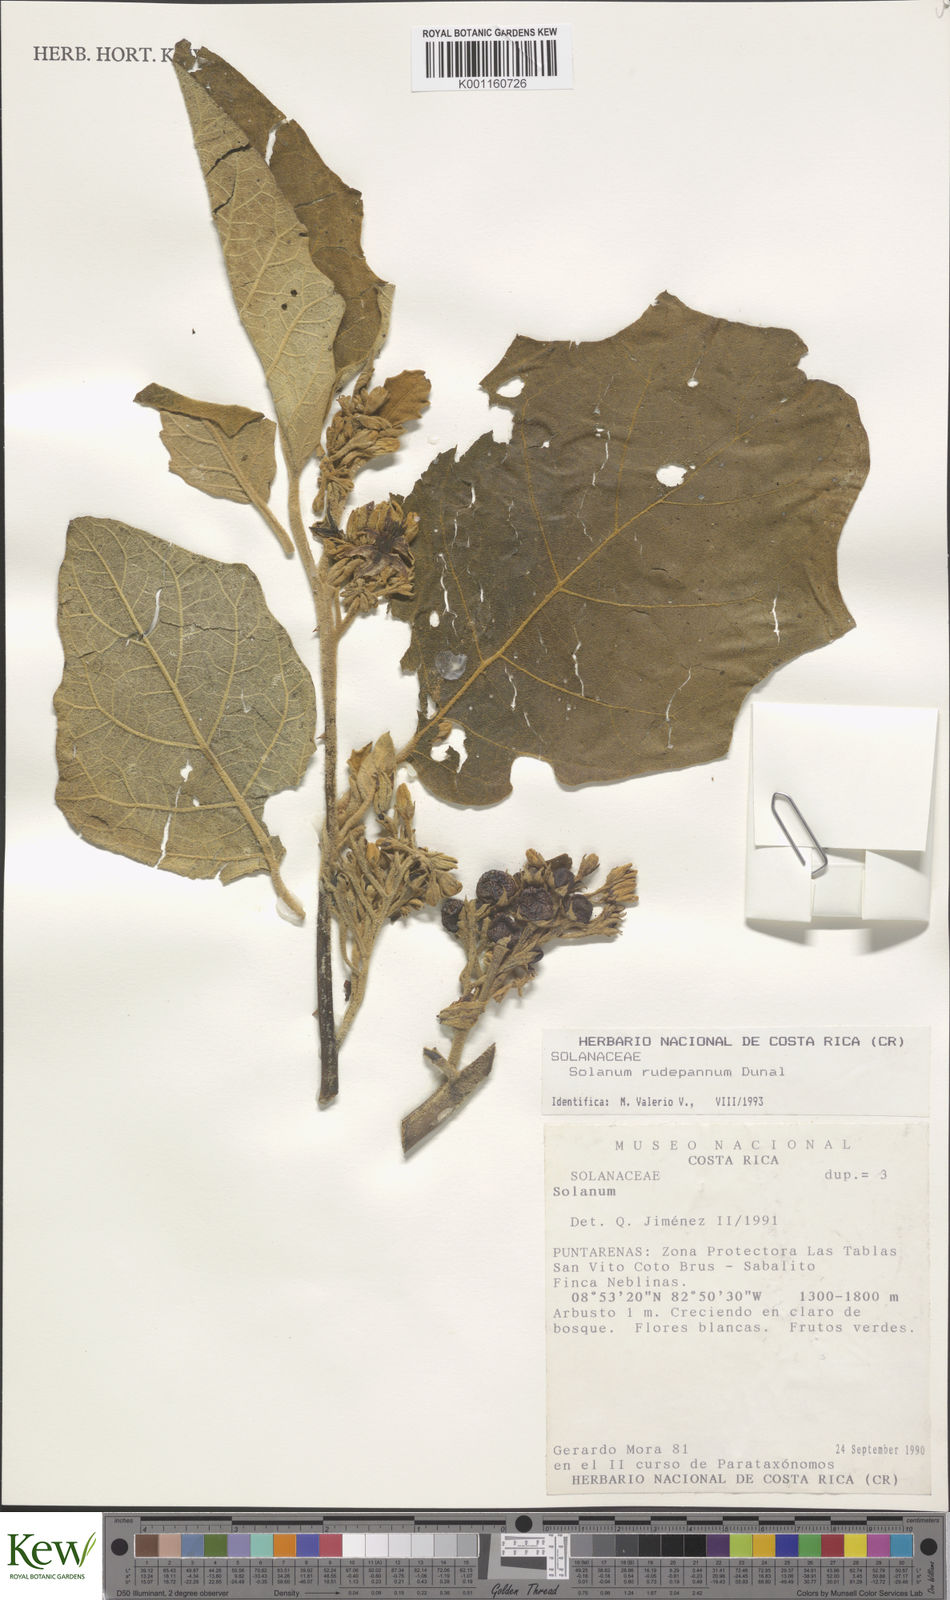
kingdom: Plantae
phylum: Tracheophyta
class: Magnoliopsida
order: Solanales
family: Solanaceae
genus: Solanum
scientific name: Solanum rude-pannum
